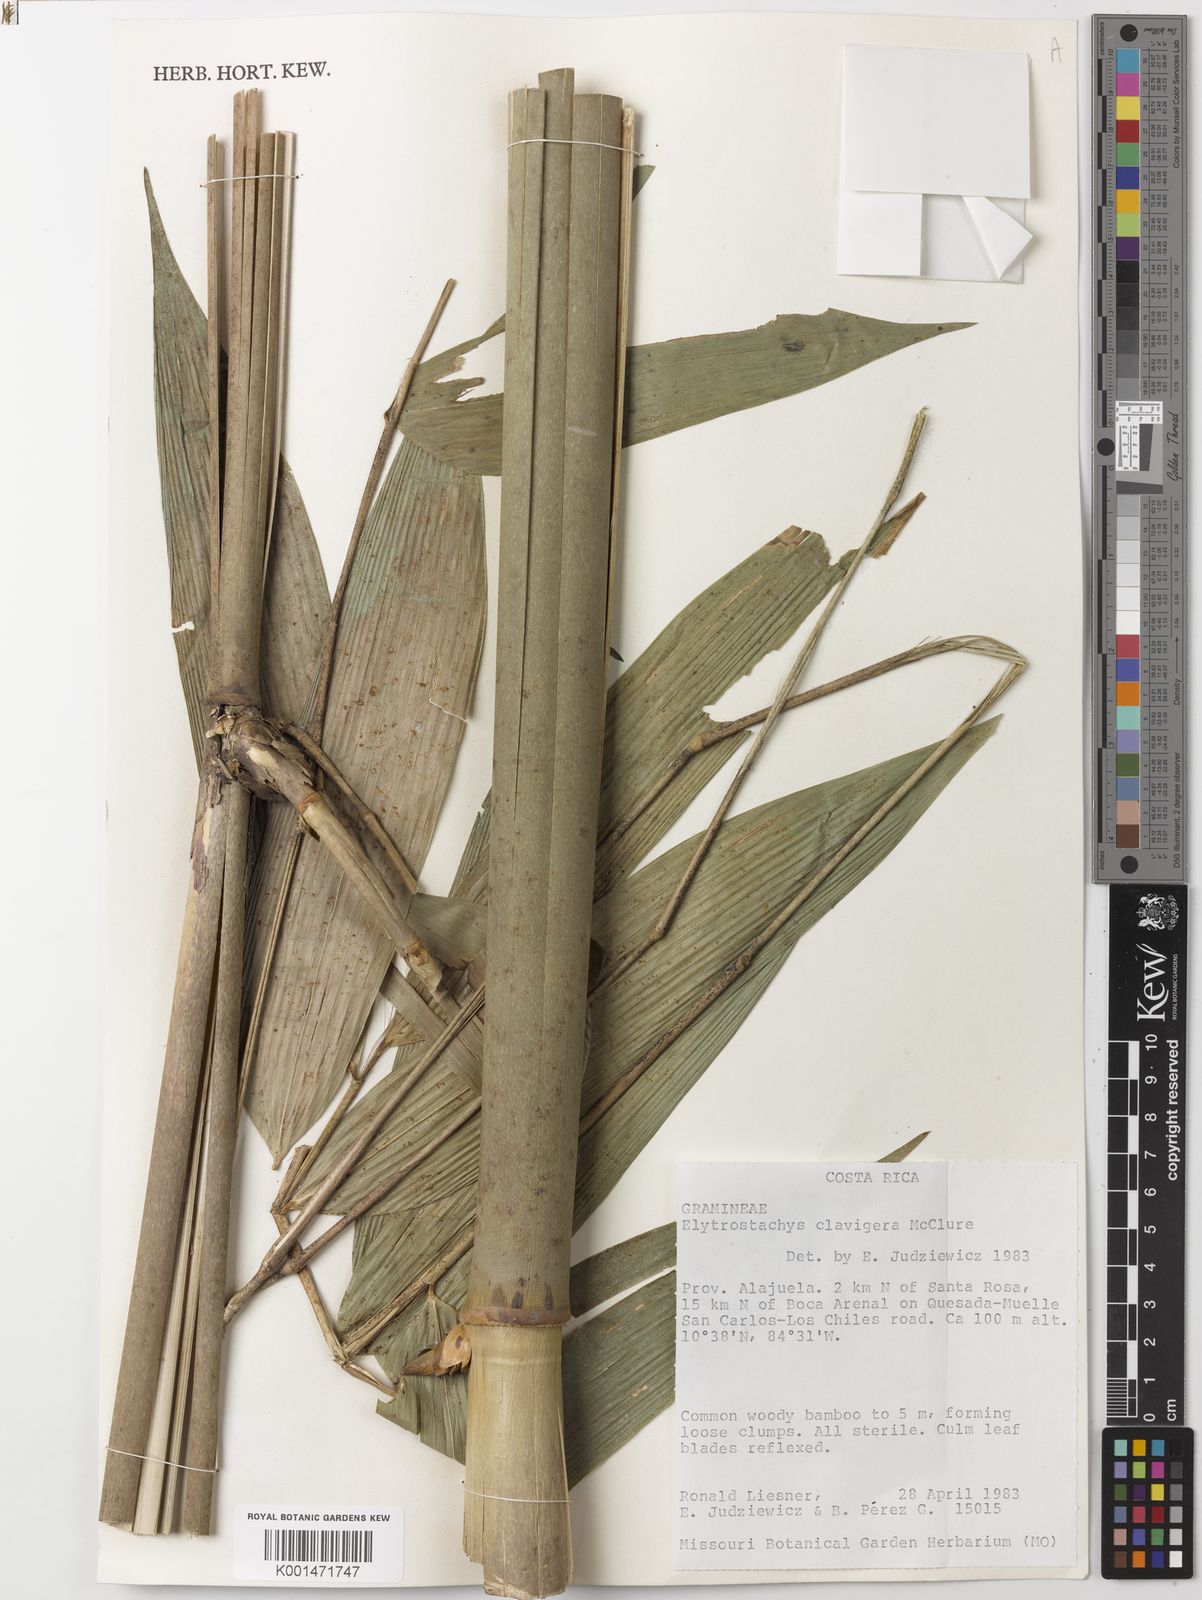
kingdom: Plantae
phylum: Tracheophyta
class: Liliopsida
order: Poales
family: Poaceae
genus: Elytrostachys
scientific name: Elytrostachys clavigera
